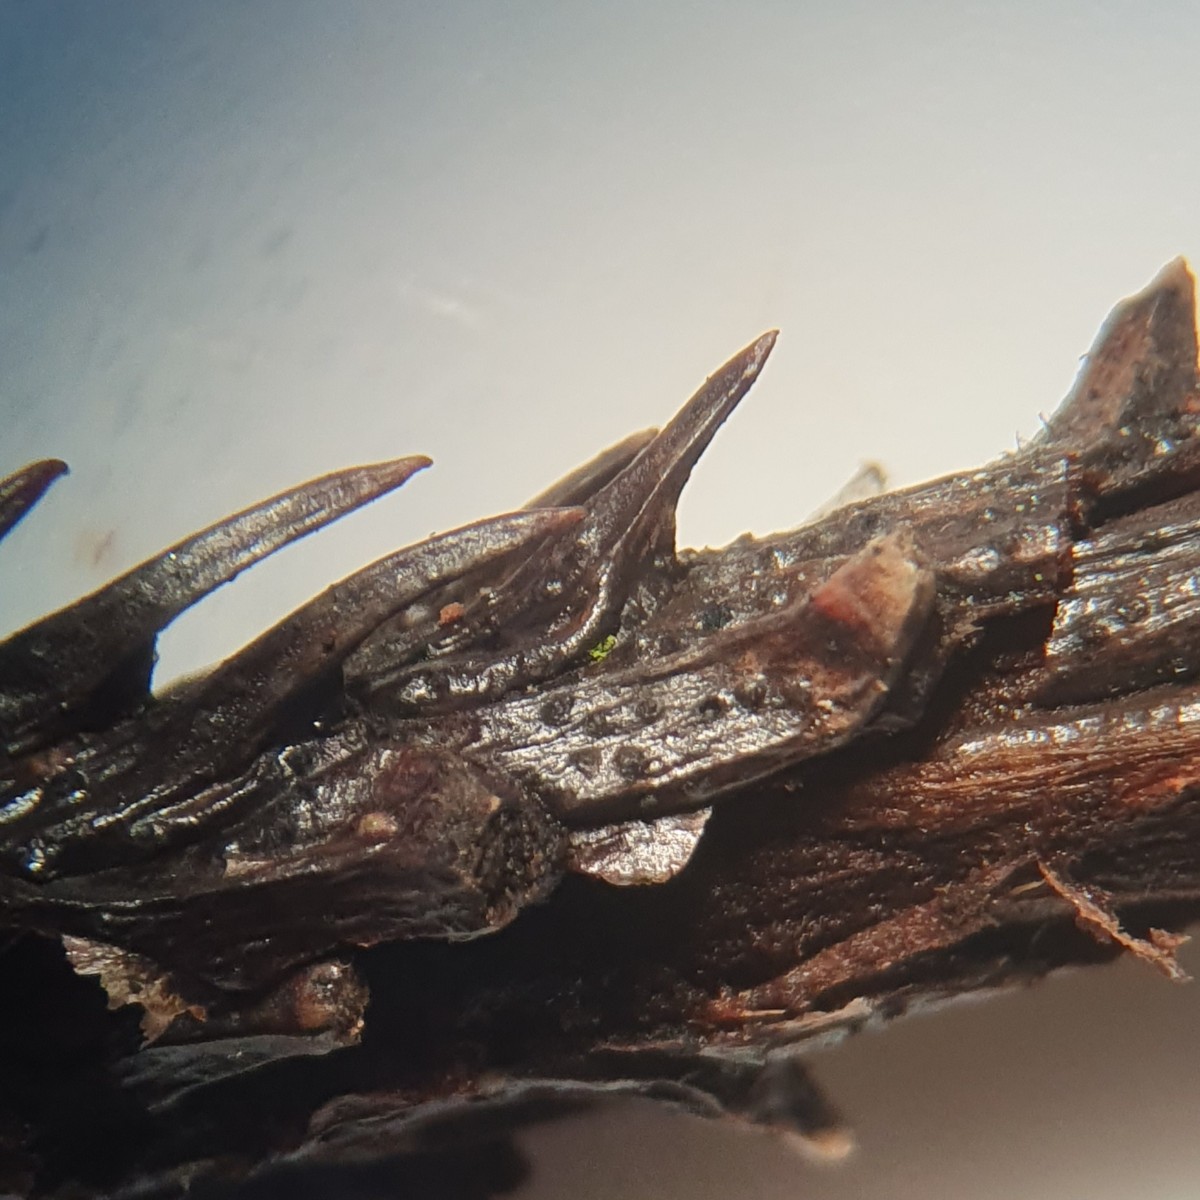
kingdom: Fungi
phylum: Ascomycota
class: Dothideomycetes
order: Botryosphaeriales
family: Botryosphaeriaceae
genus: Diplodia
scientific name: Diplodia
